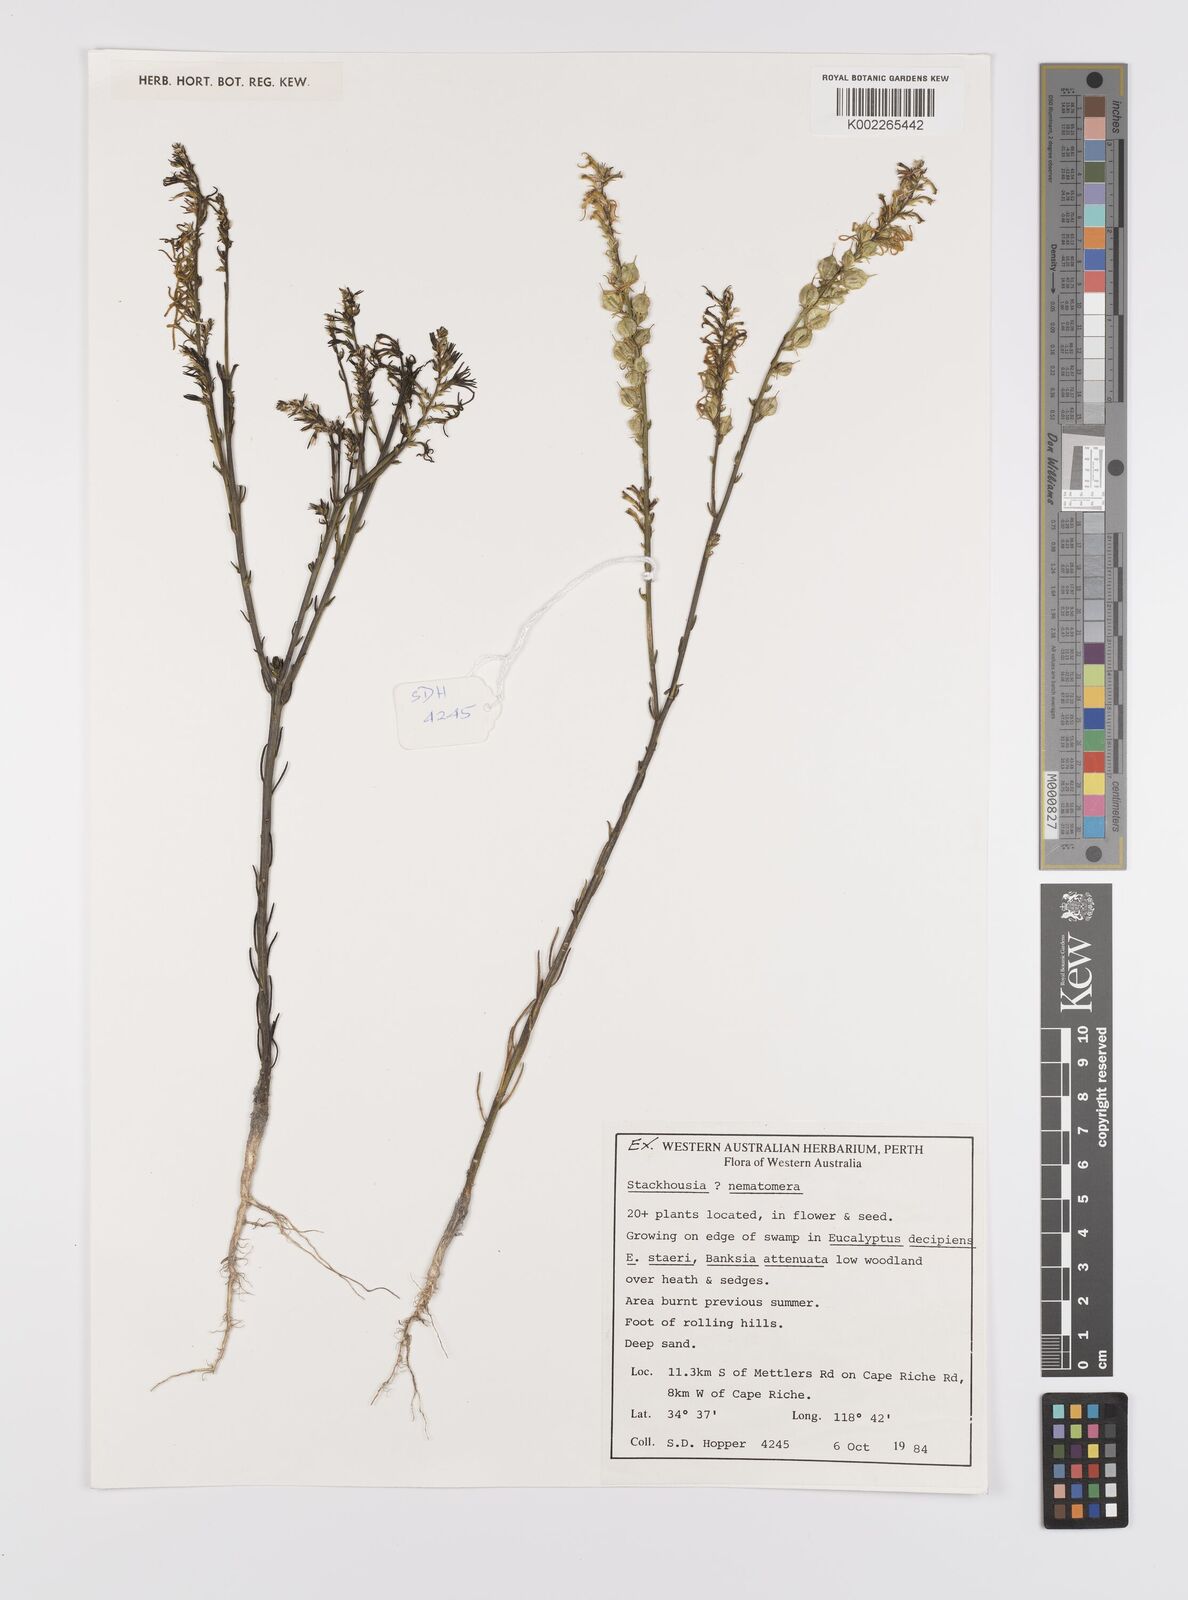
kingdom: Plantae
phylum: Tracheophyta
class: Magnoliopsida
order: Celastrales
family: Celastraceae
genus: Tripterococcus
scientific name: Tripterococcus brunonis
